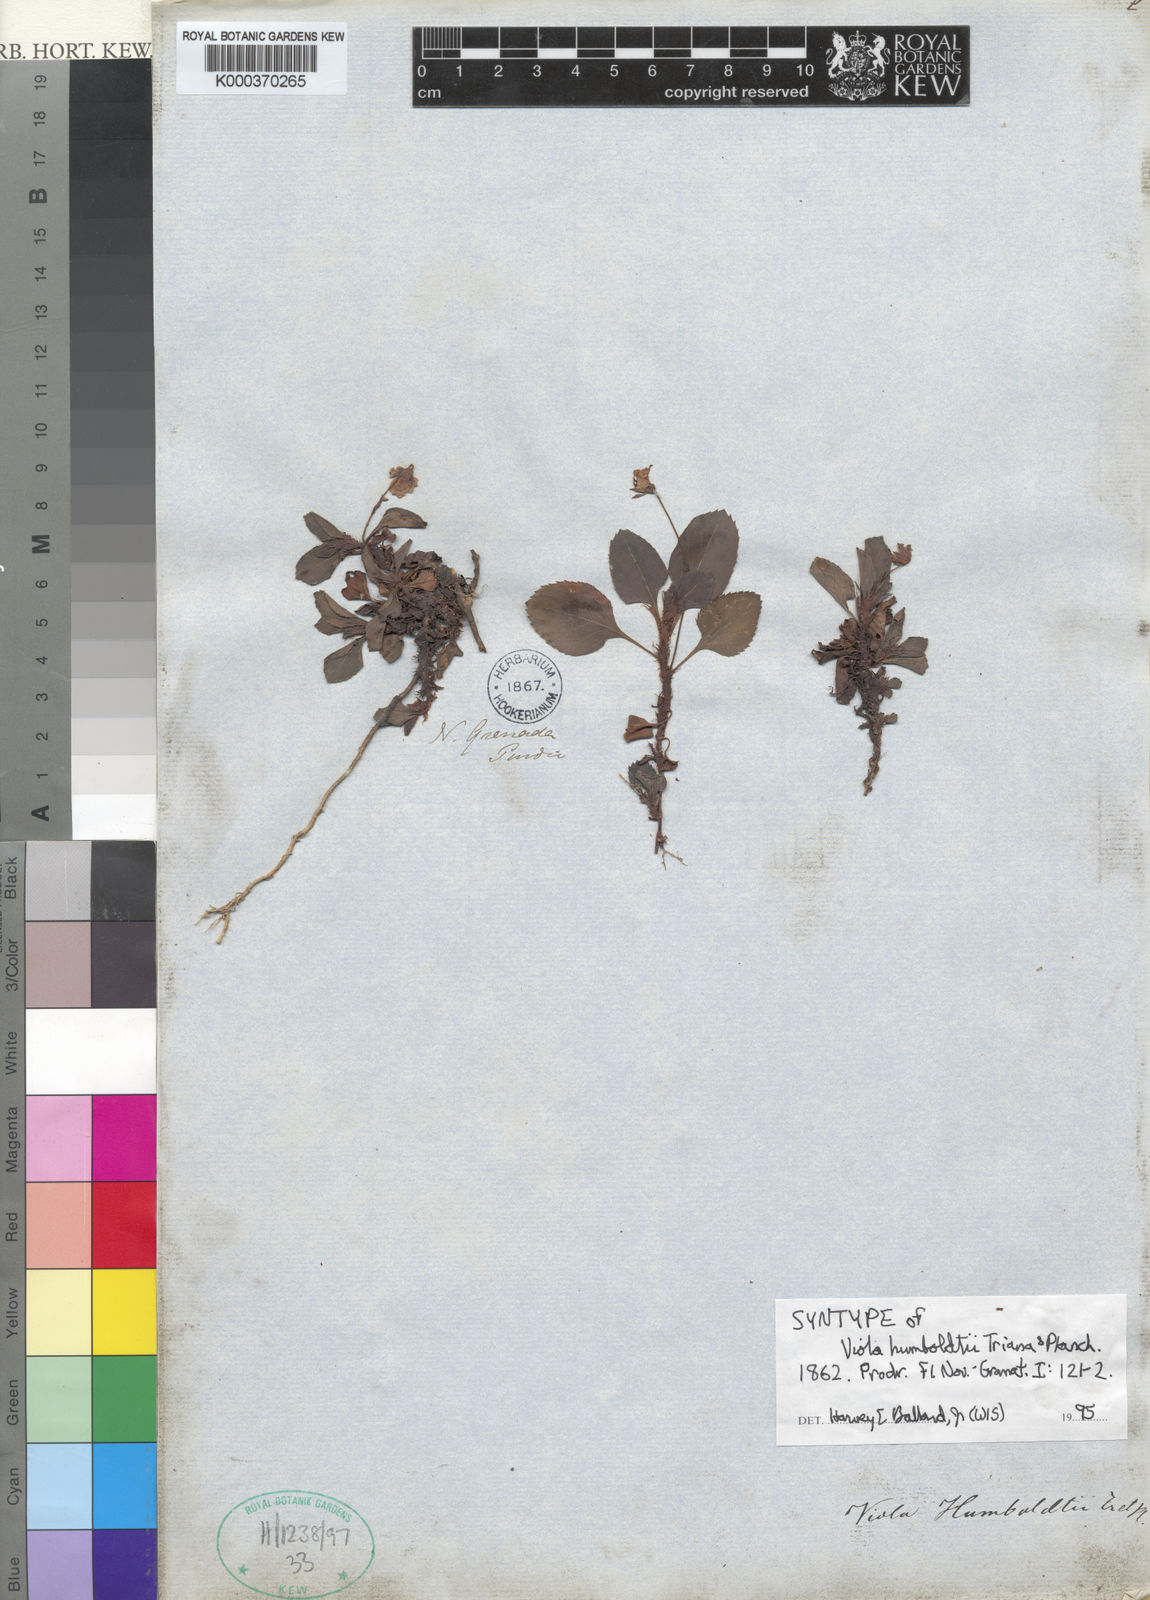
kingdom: Plantae
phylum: Tracheophyta
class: Magnoliopsida
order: Malpighiales
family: Violaceae
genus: Viola
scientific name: Viola dombeyana
